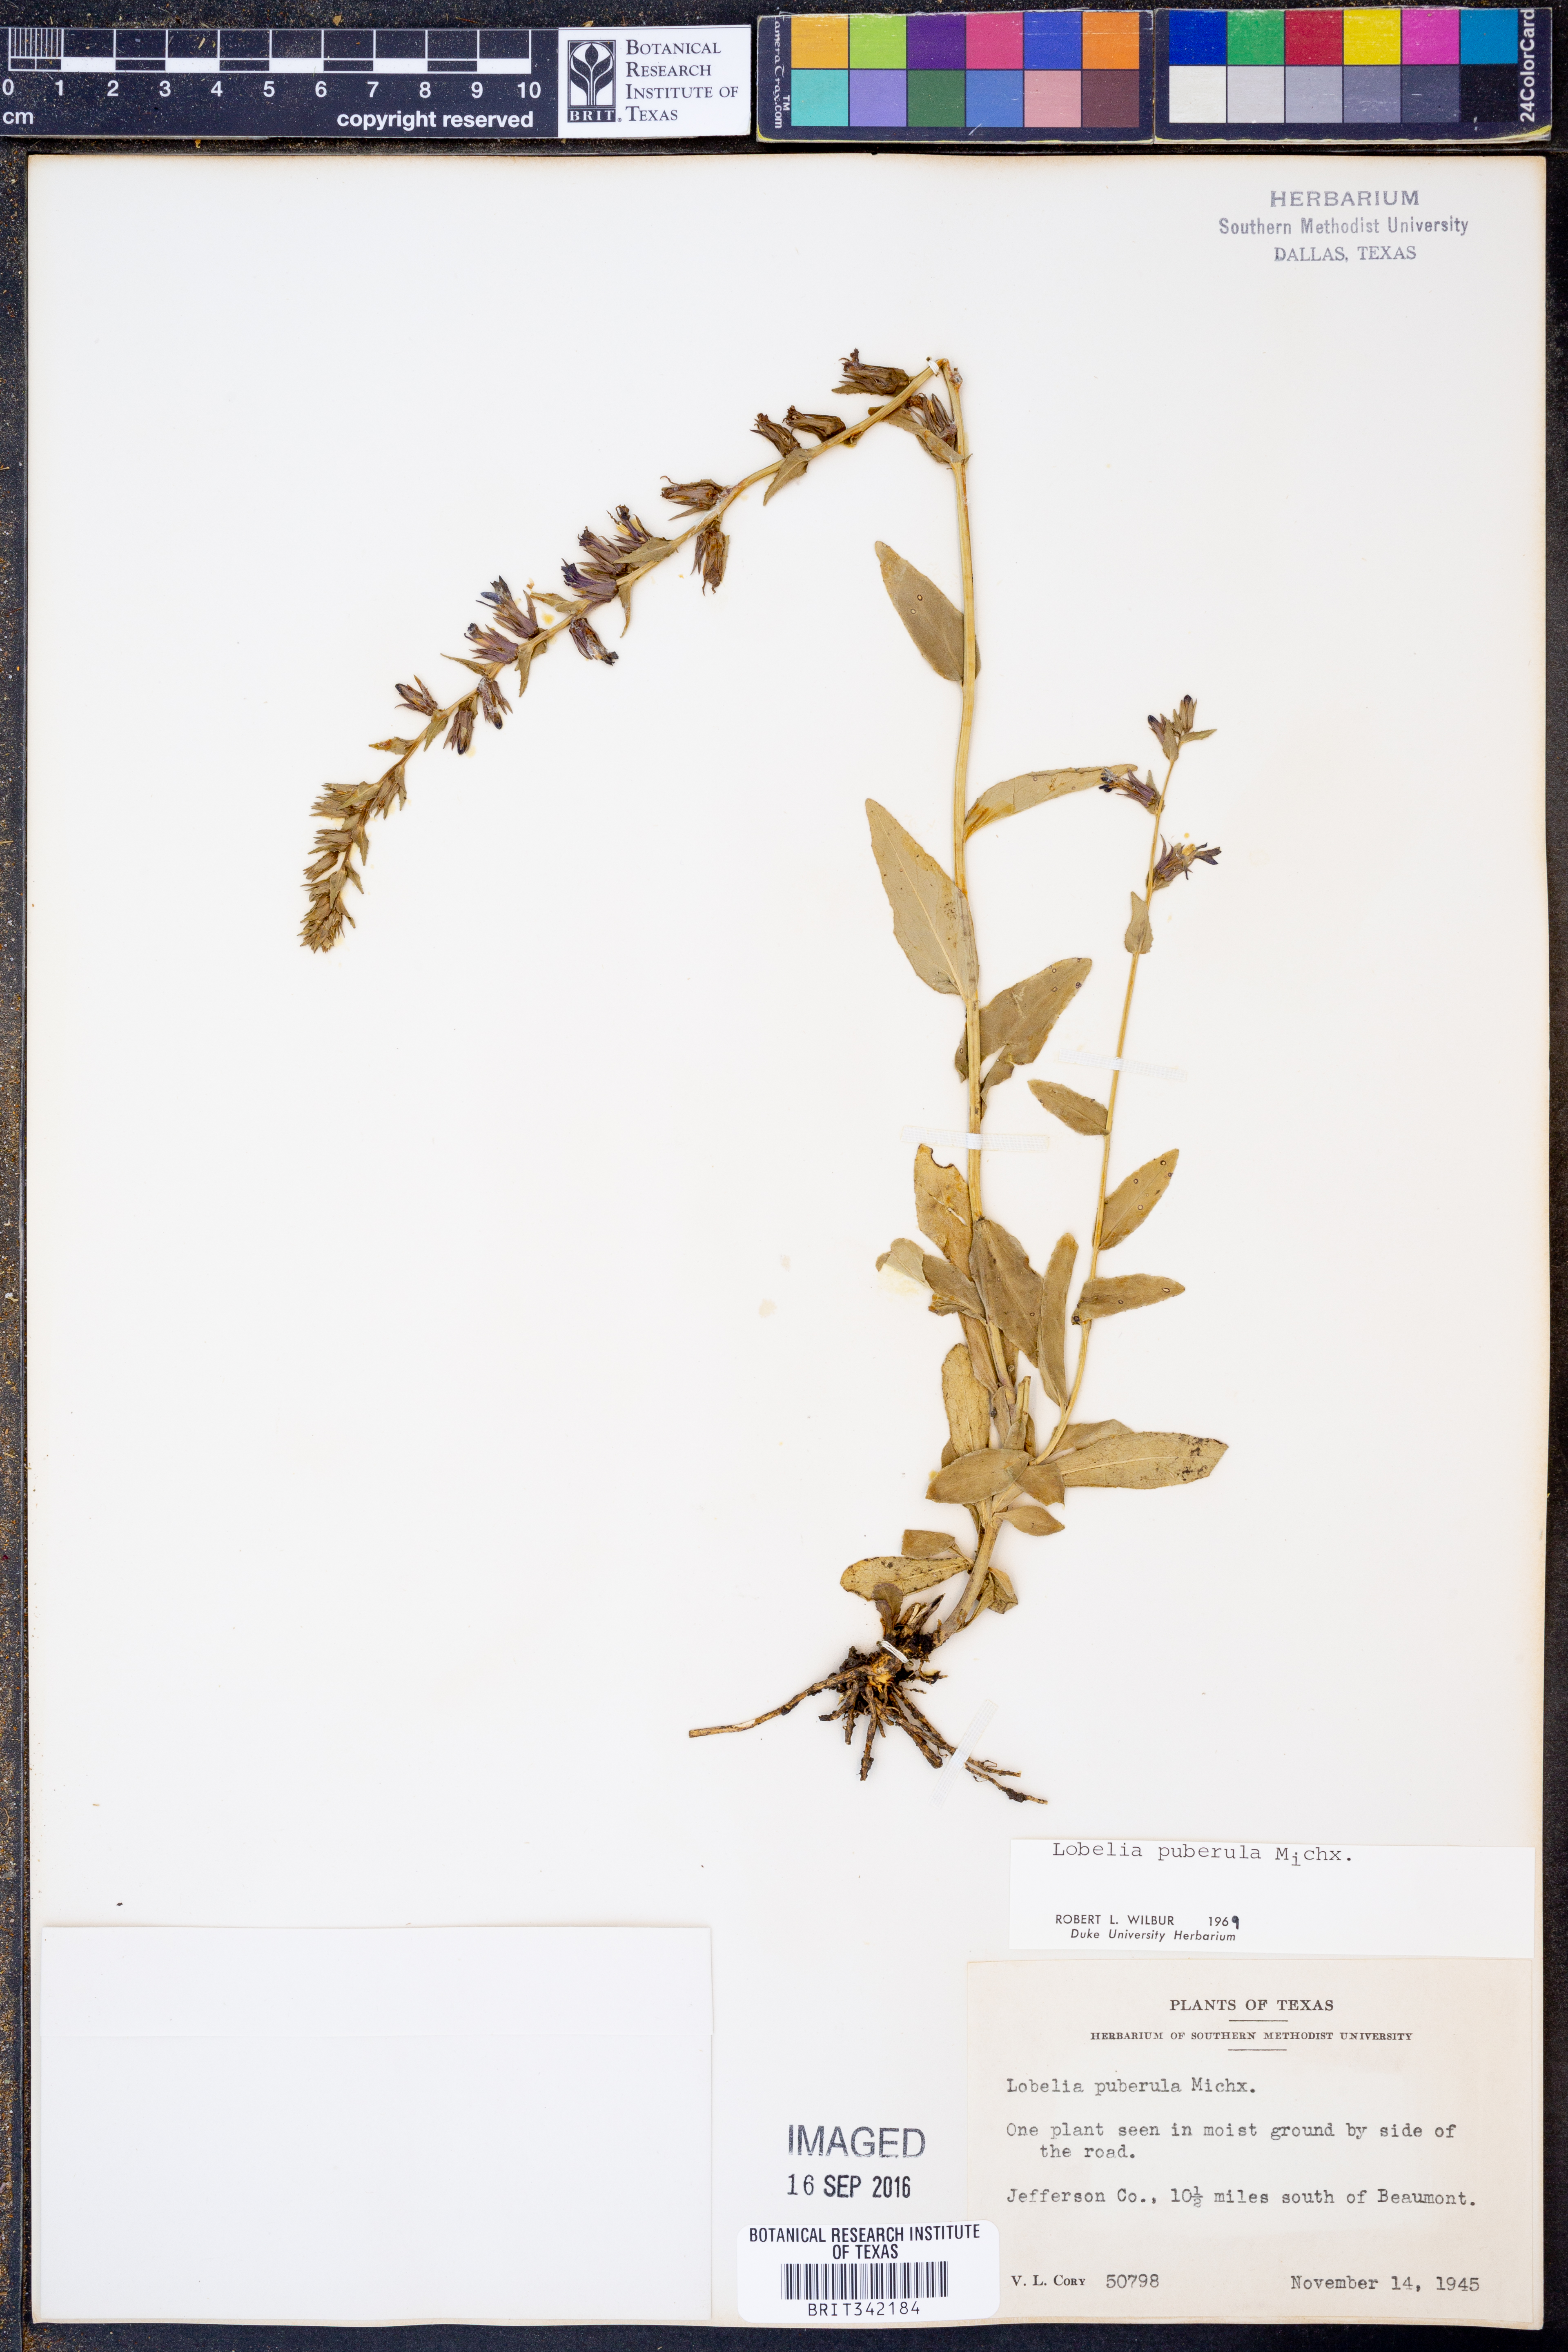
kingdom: Plantae
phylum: Tracheophyta
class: Magnoliopsida
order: Asterales
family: Campanulaceae
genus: Lobelia
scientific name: Lobelia puberula
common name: Purple dewdrop
